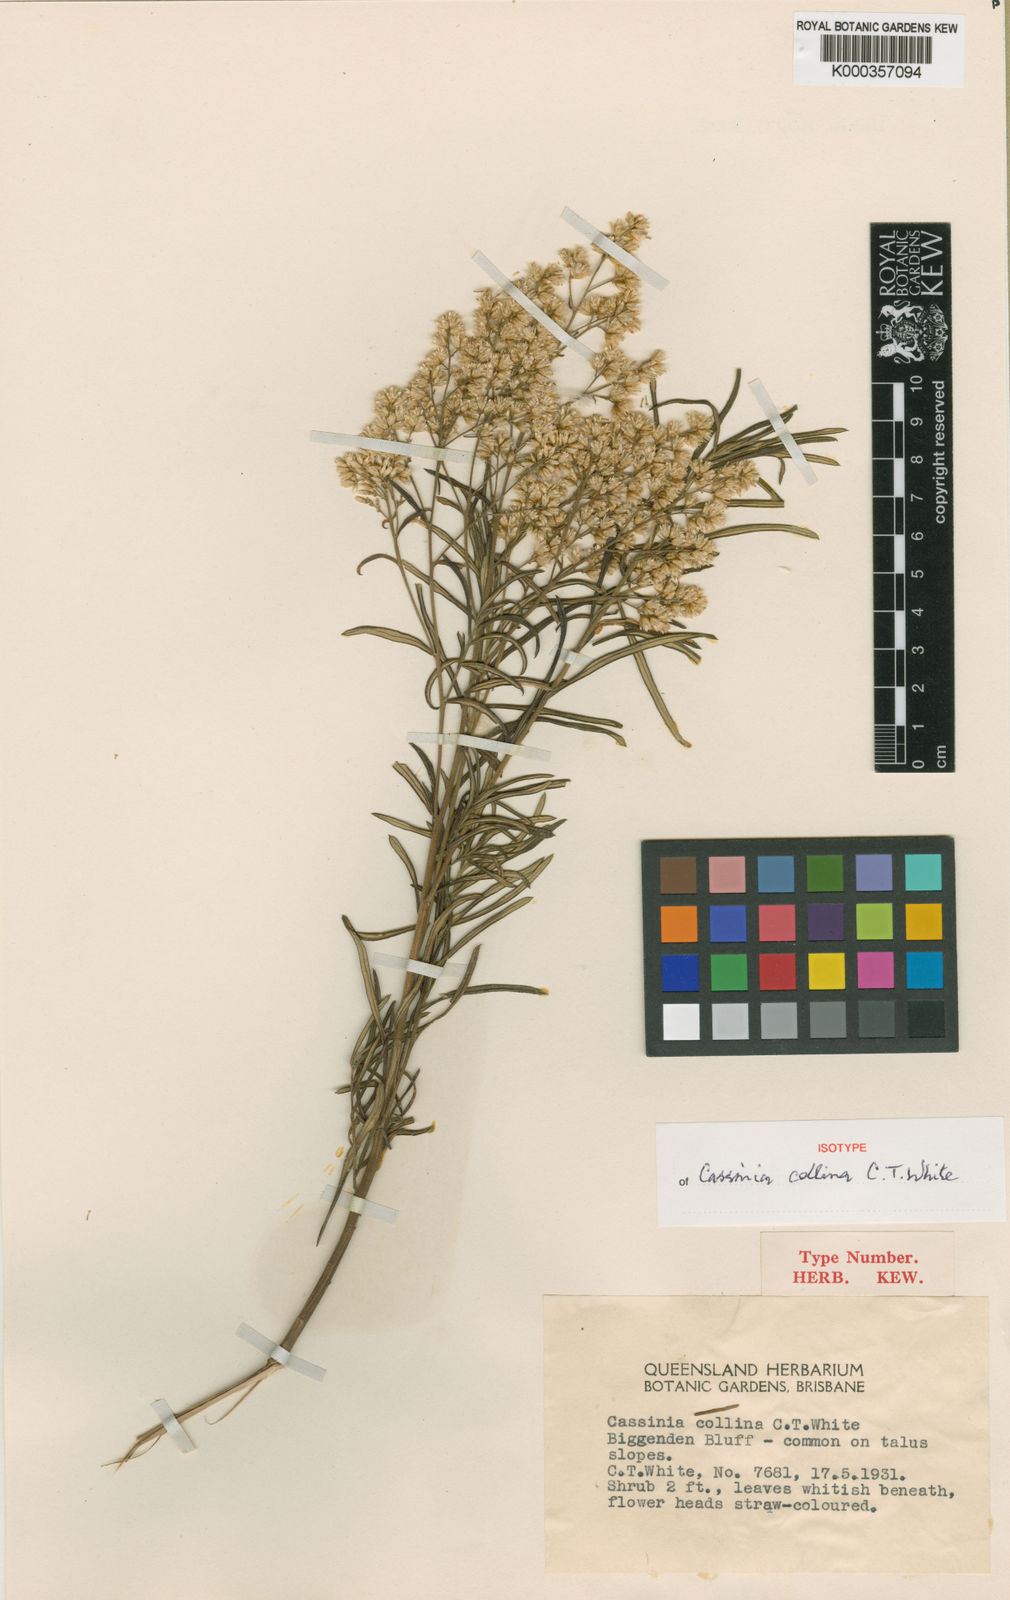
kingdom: Plantae
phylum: Tracheophyta
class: Magnoliopsida
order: Asterales
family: Asteraceae
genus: Cassinia
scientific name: Cassinia collina
